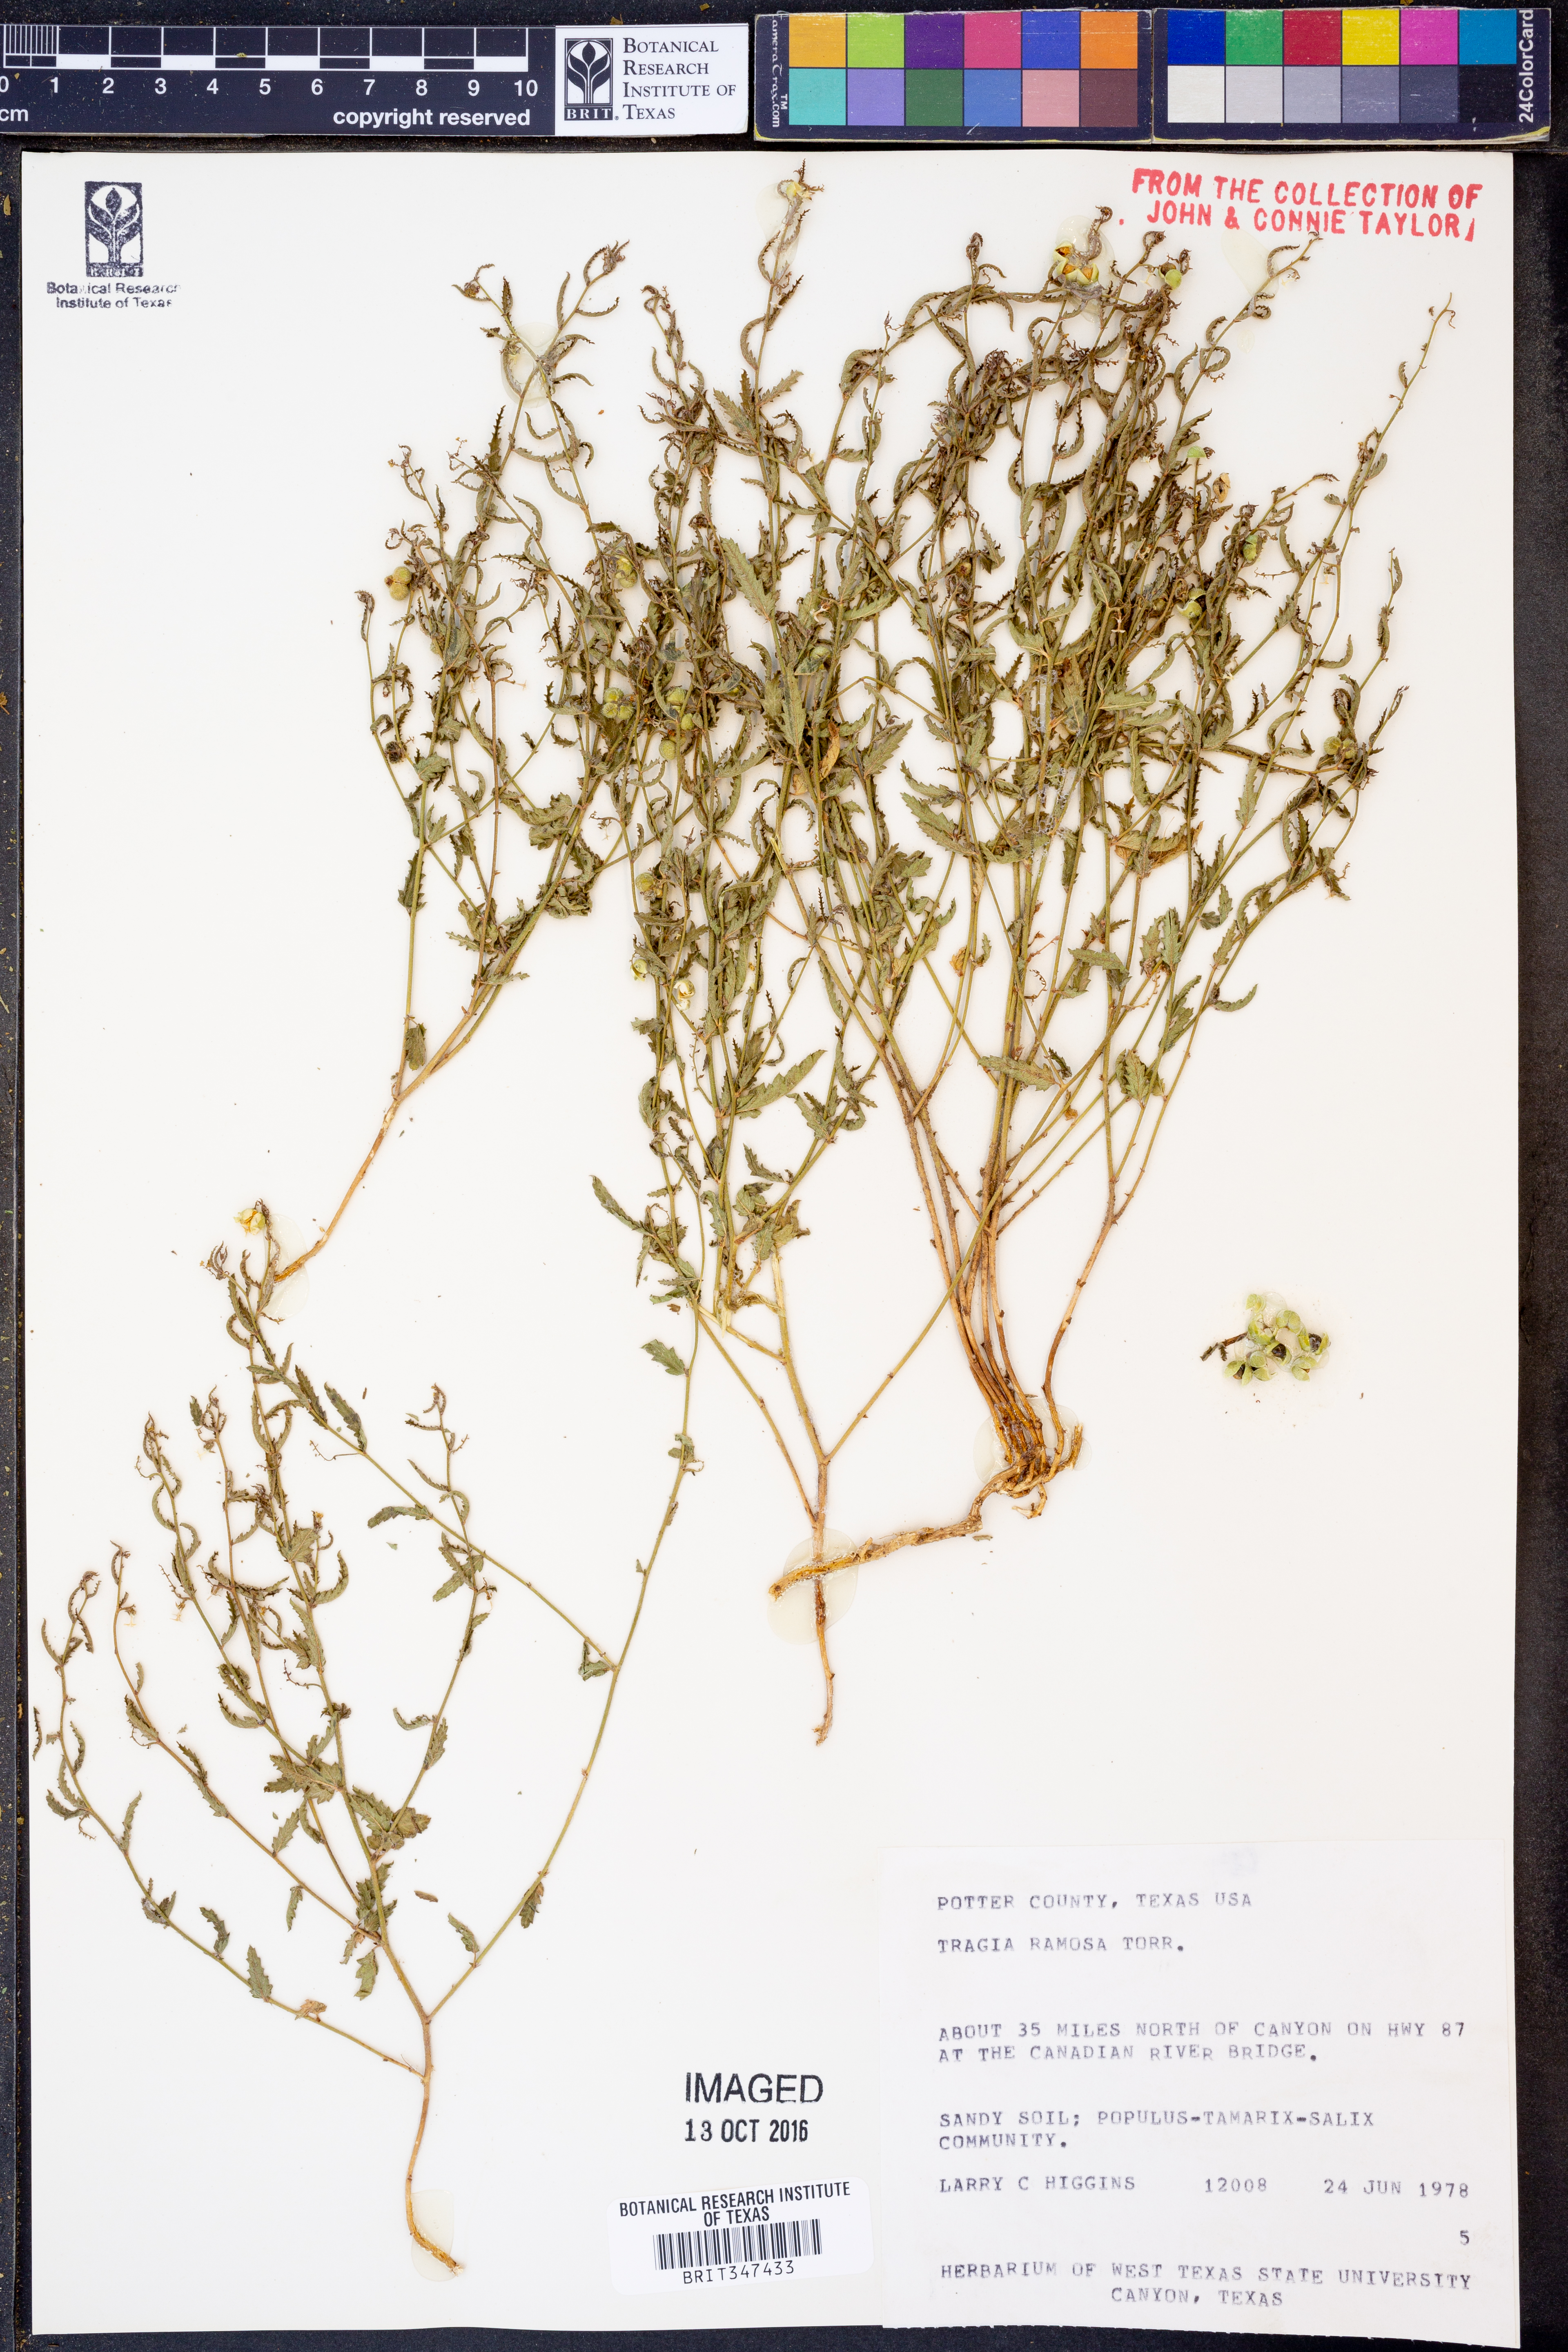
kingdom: Plantae
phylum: Tracheophyta
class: Magnoliopsida
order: Malpighiales
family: Euphorbiaceae
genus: Tragia
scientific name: Tragia ramosa
